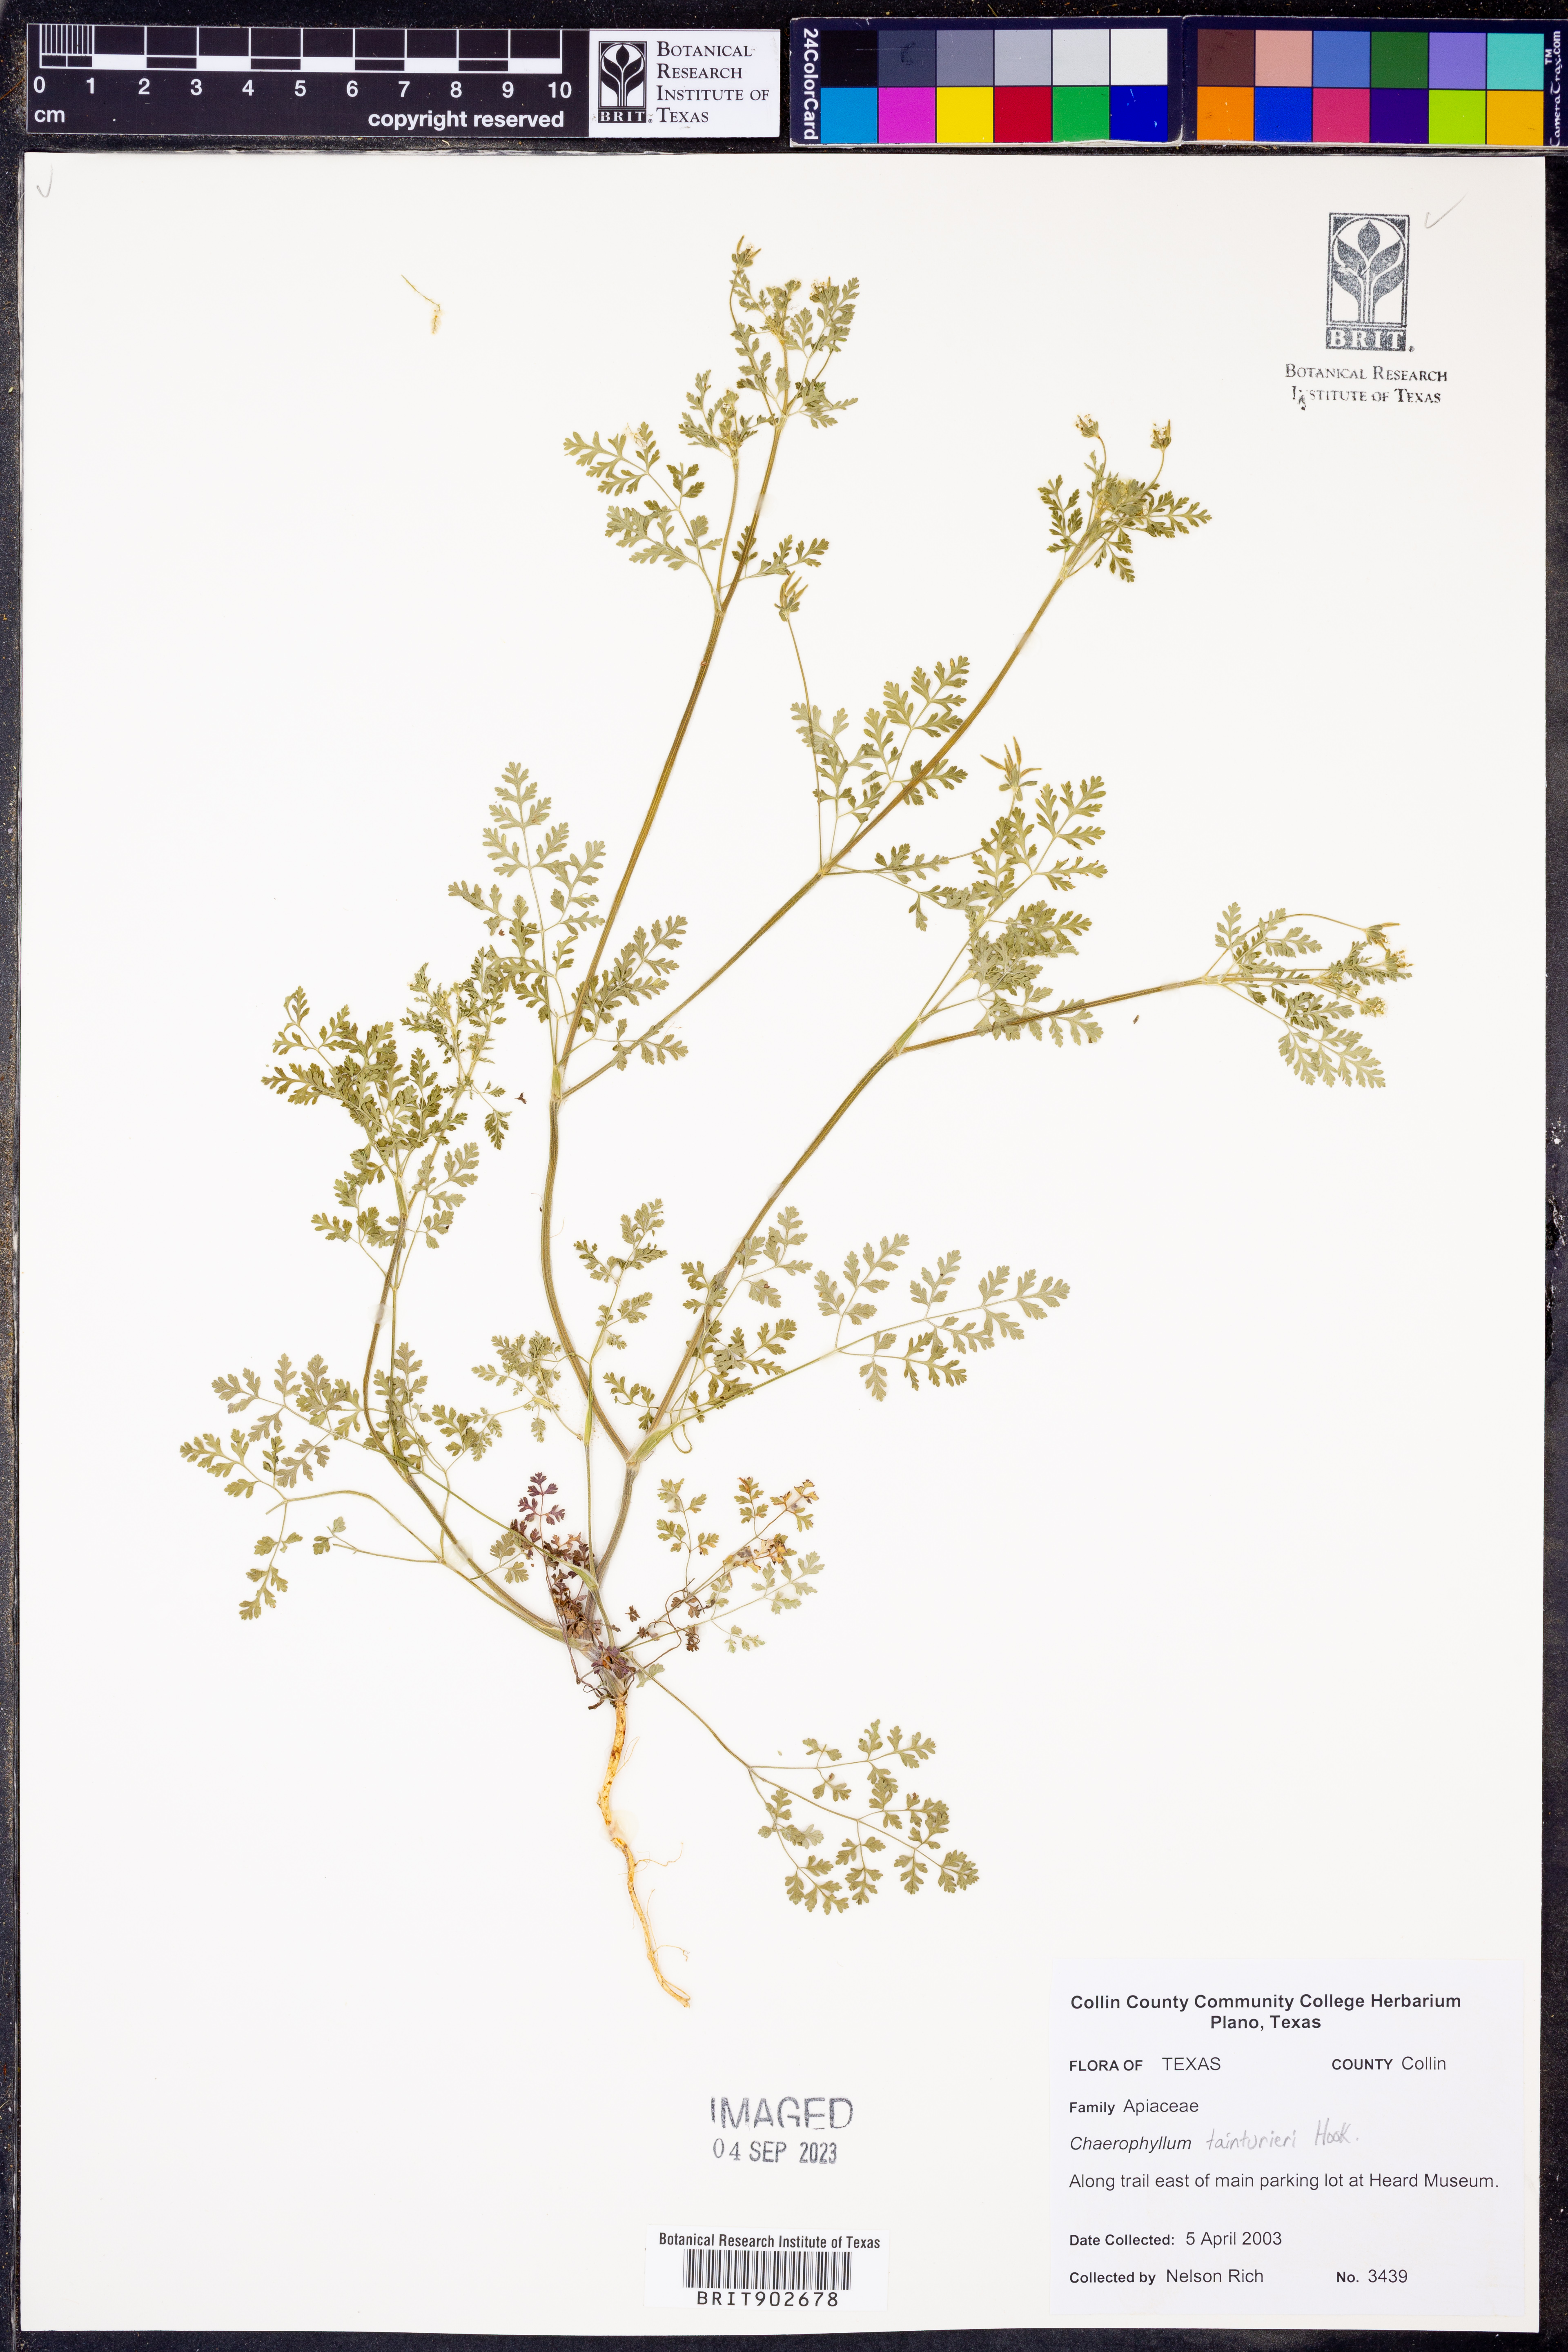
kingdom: Plantae
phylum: Tracheophyta
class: Magnoliopsida
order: Apiales
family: Apiaceae
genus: Chaerophyllum
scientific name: Chaerophyllum tainturieri
